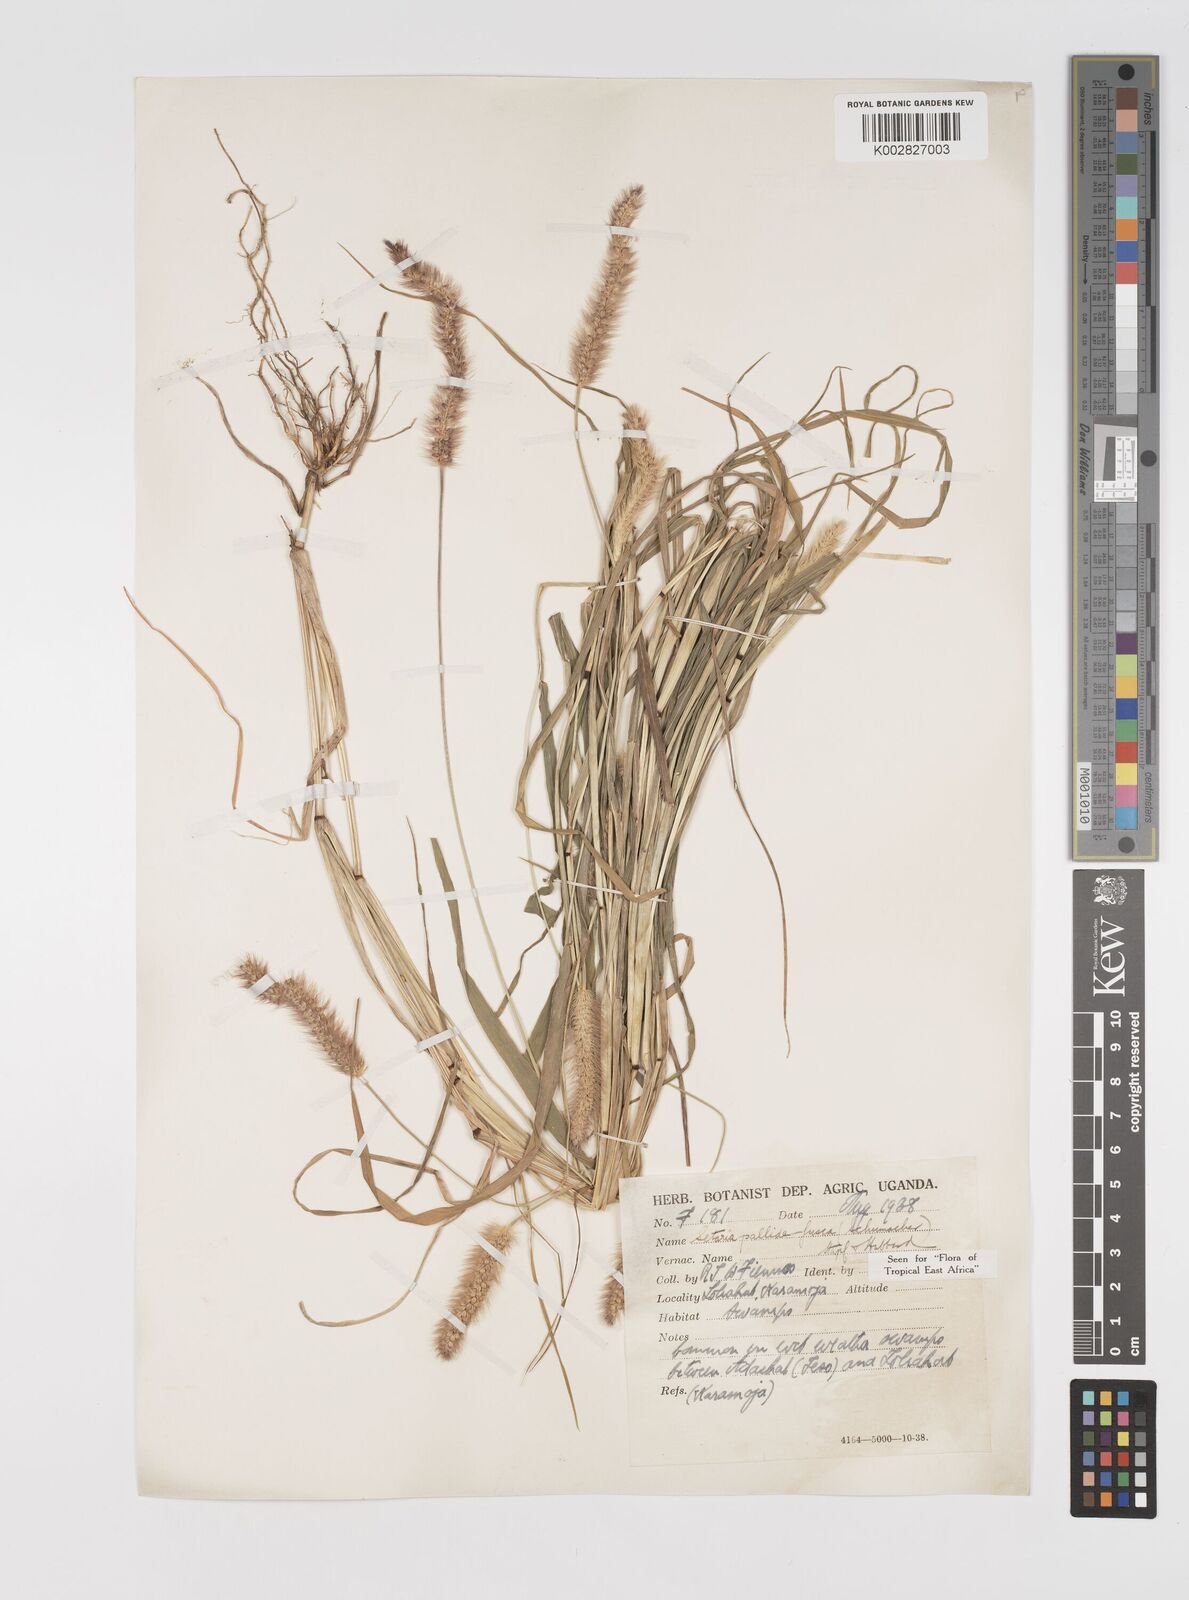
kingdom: Plantae
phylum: Tracheophyta
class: Liliopsida
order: Poales
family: Poaceae
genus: Setaria
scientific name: Setaria pumila
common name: Yellow bristle-grass
